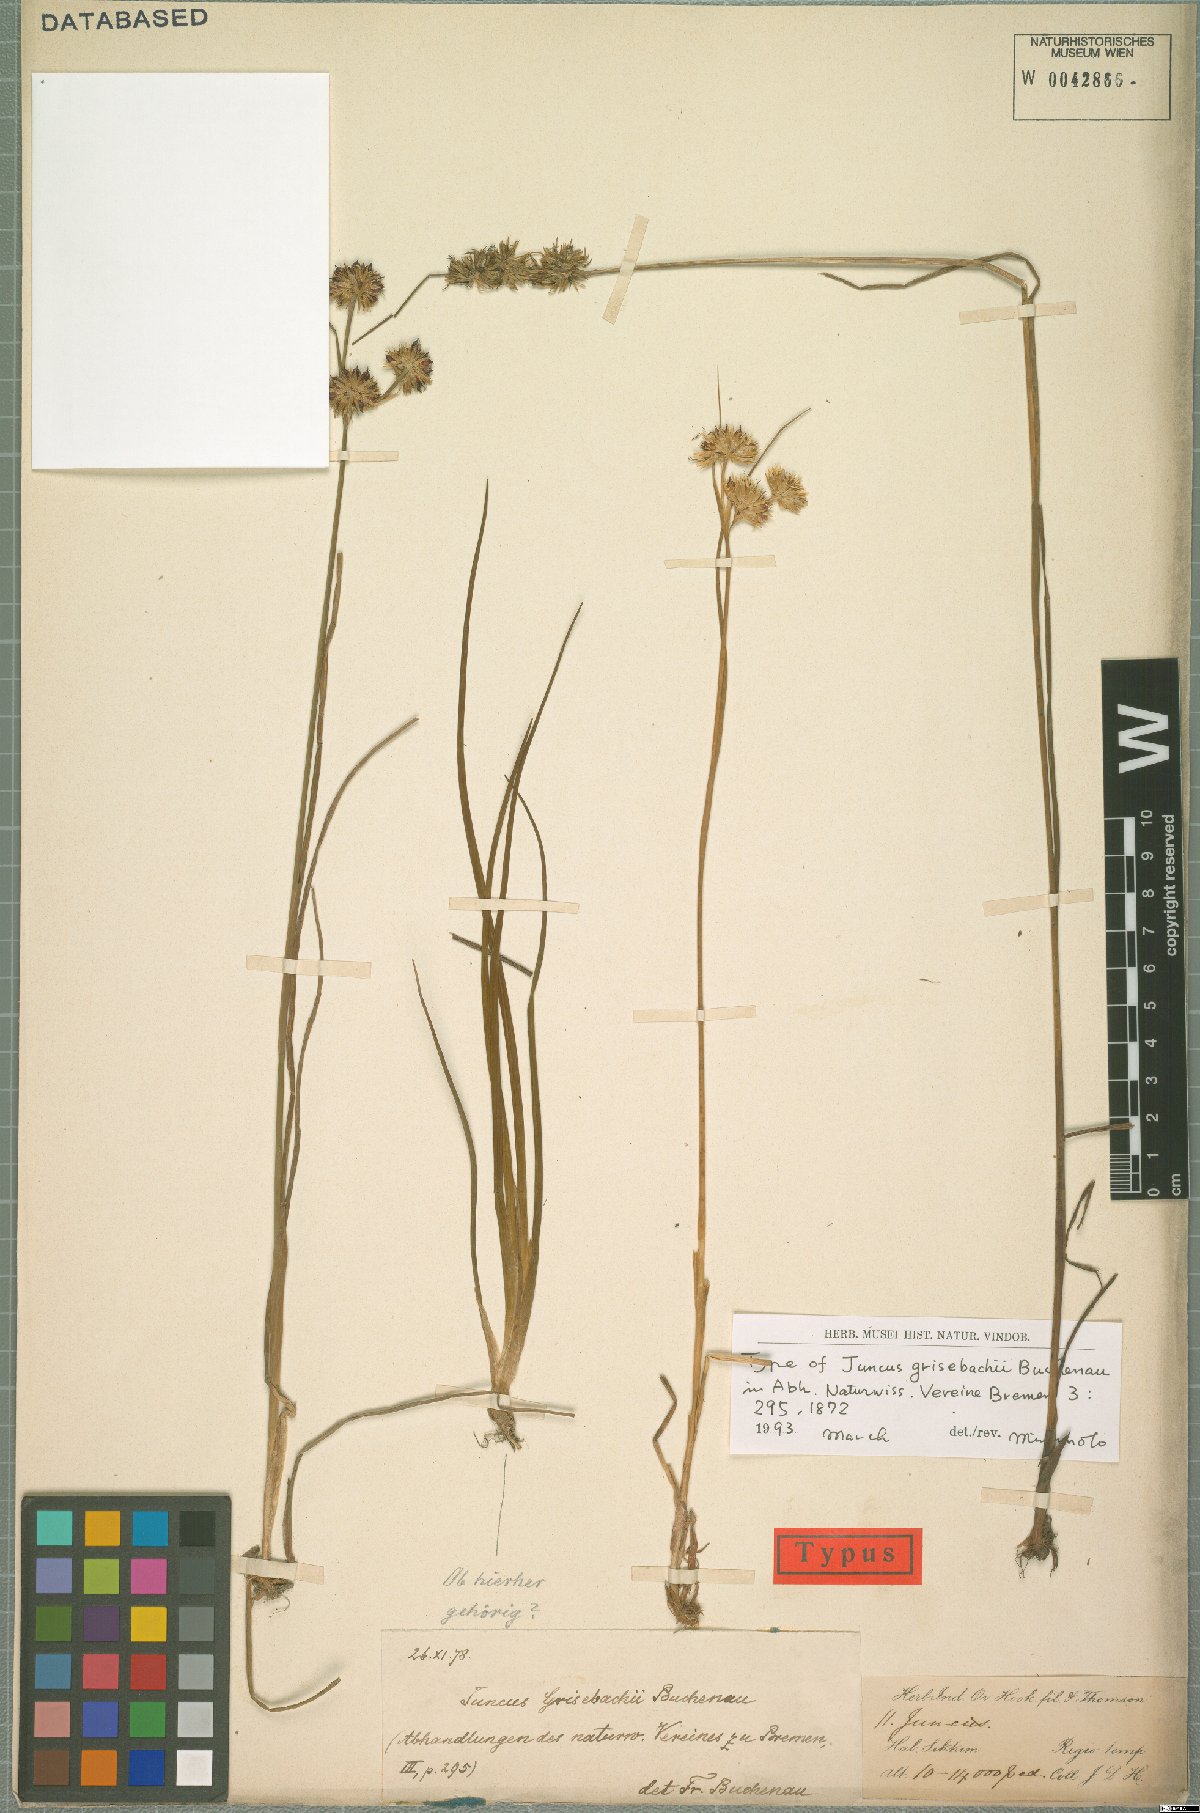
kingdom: Plantae
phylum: Tracheophyta
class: Liliopsida
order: Poales
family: Juncaceae
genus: Juncus
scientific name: Juncus grisebachii
